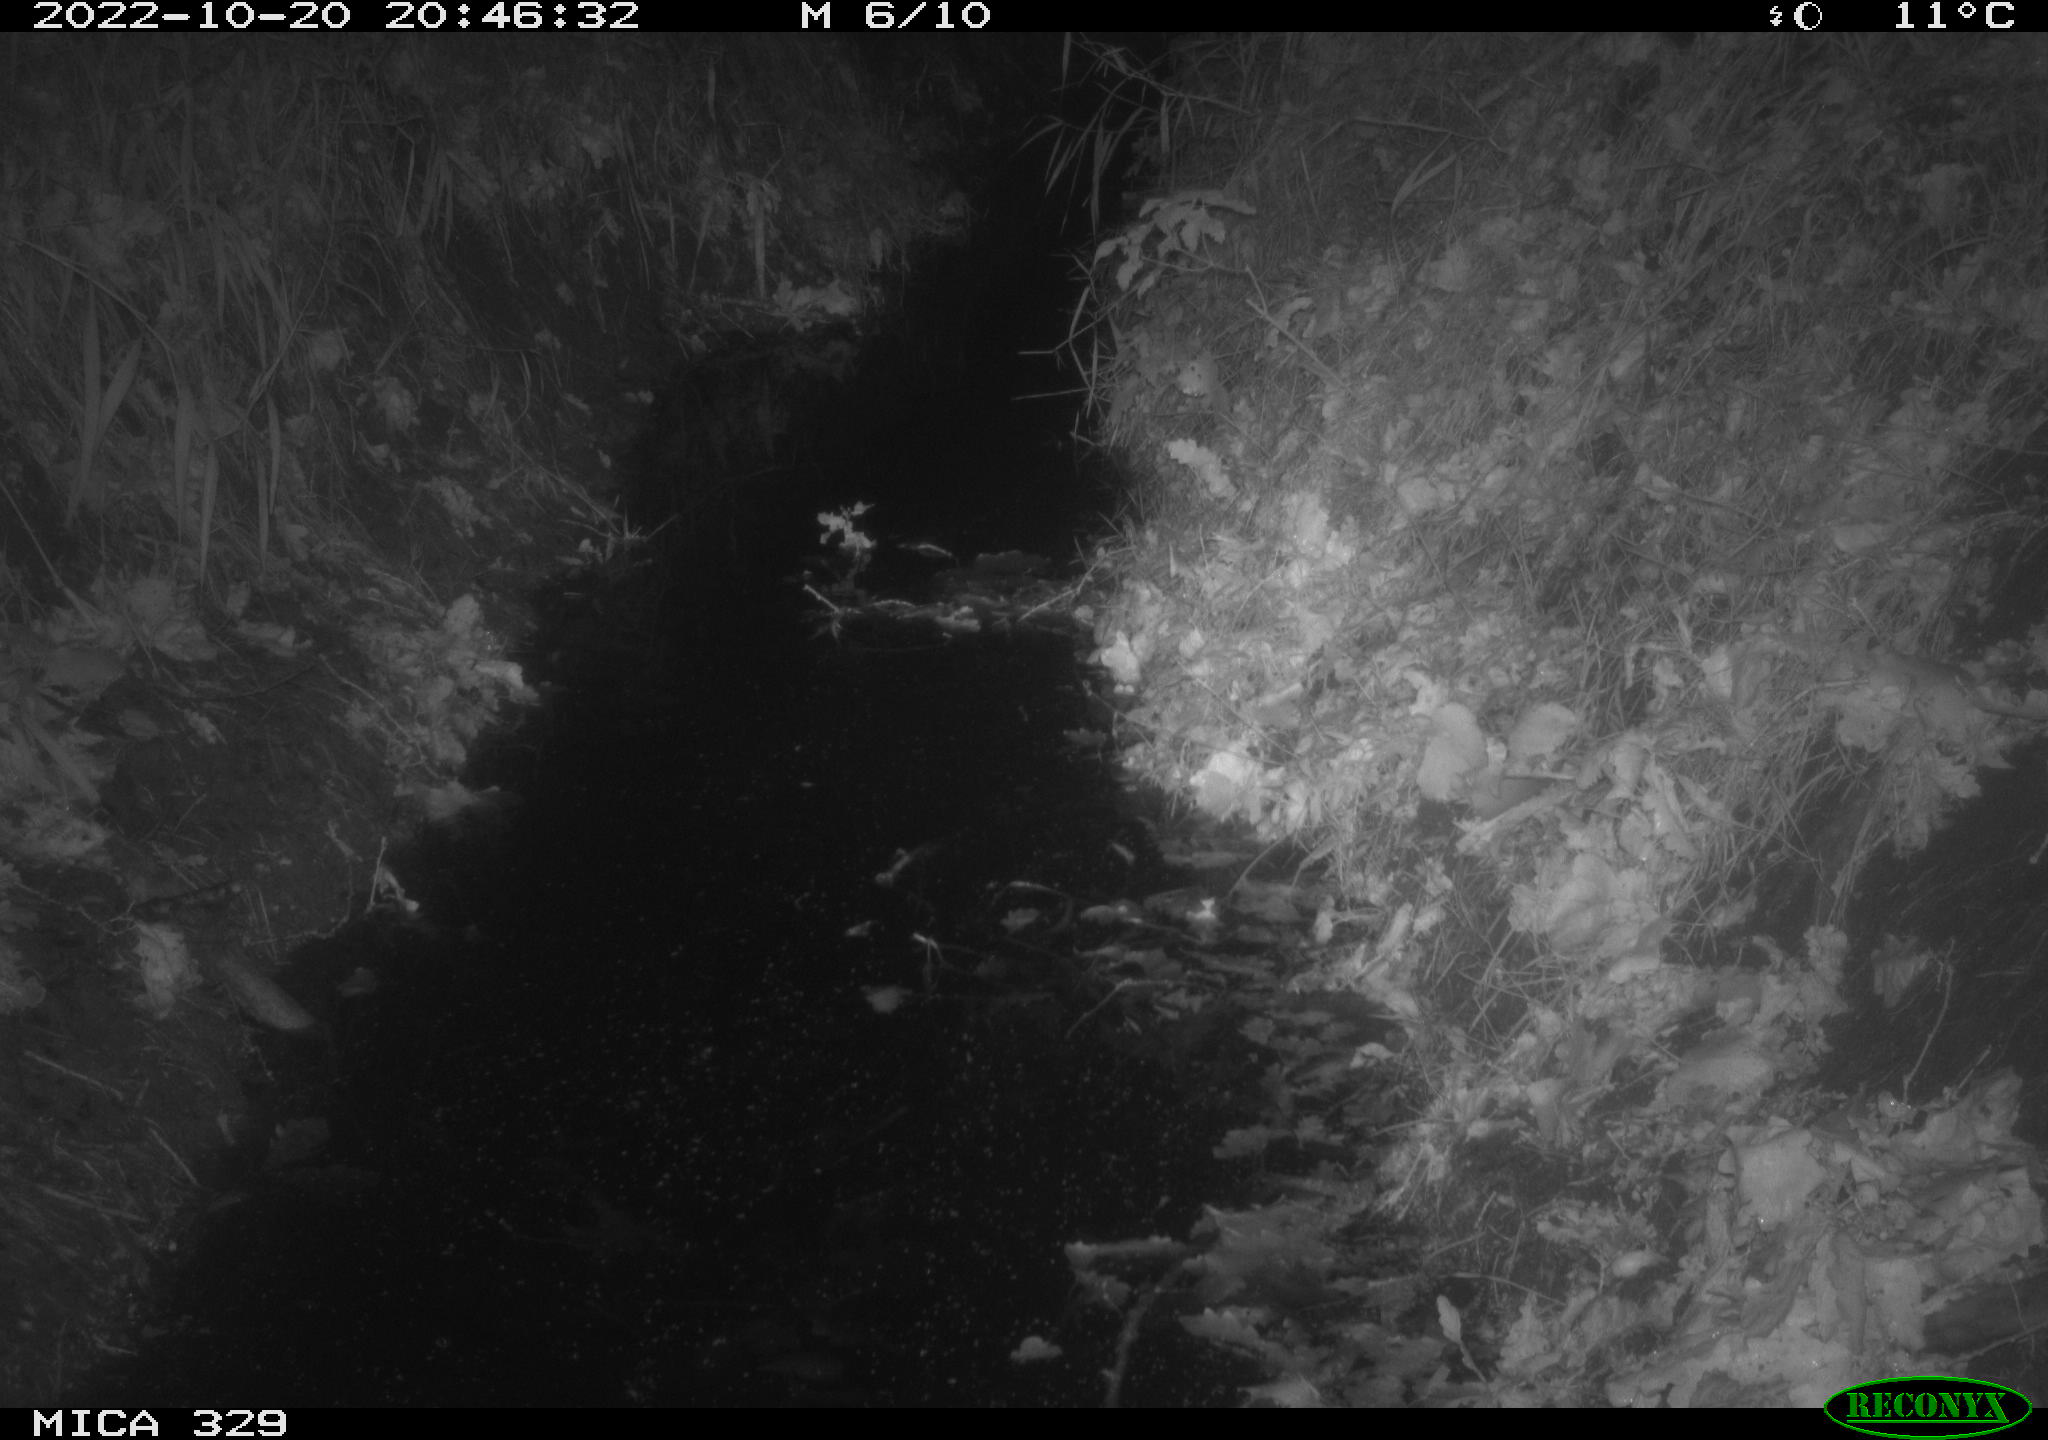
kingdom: Animalia
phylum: Chordata
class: Mammalia
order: Rodentia
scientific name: Rodentia
